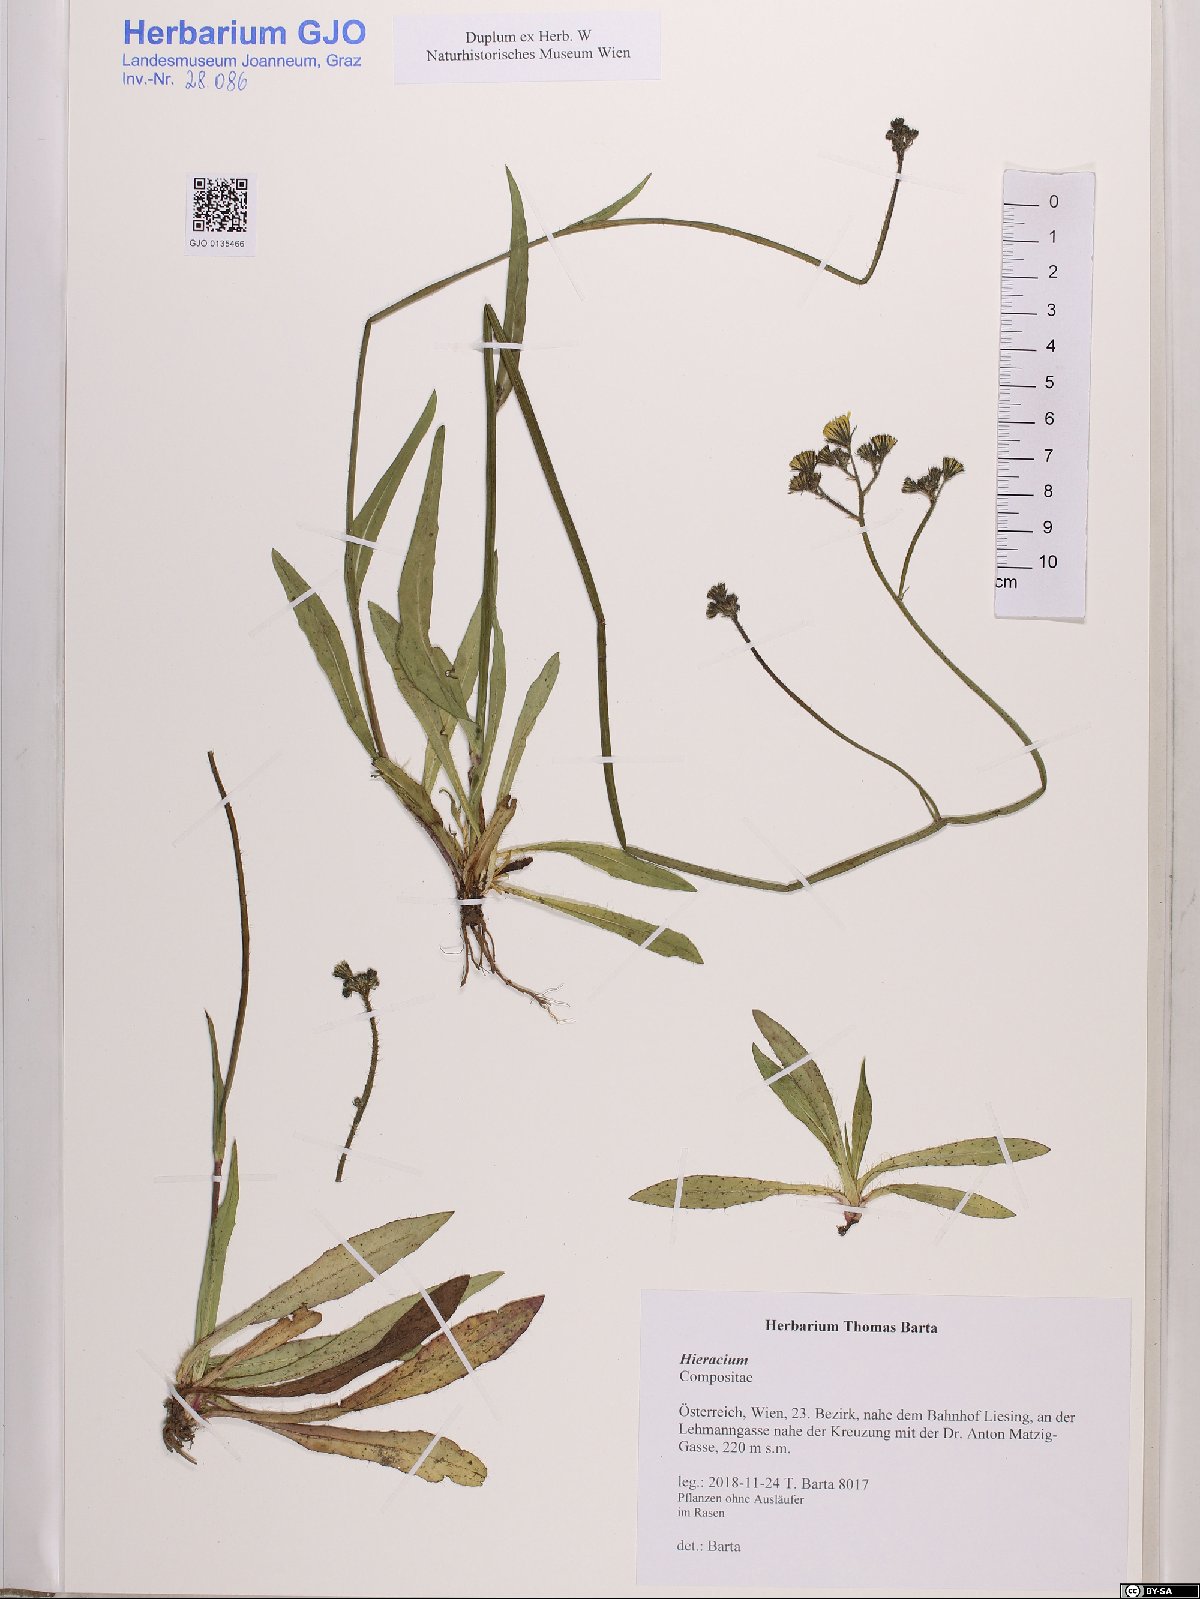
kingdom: Plantae
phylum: Tracheophyta
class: Magnoliopsida
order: Asterales
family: Asteraceae
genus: Hieracium
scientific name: Hieracium
